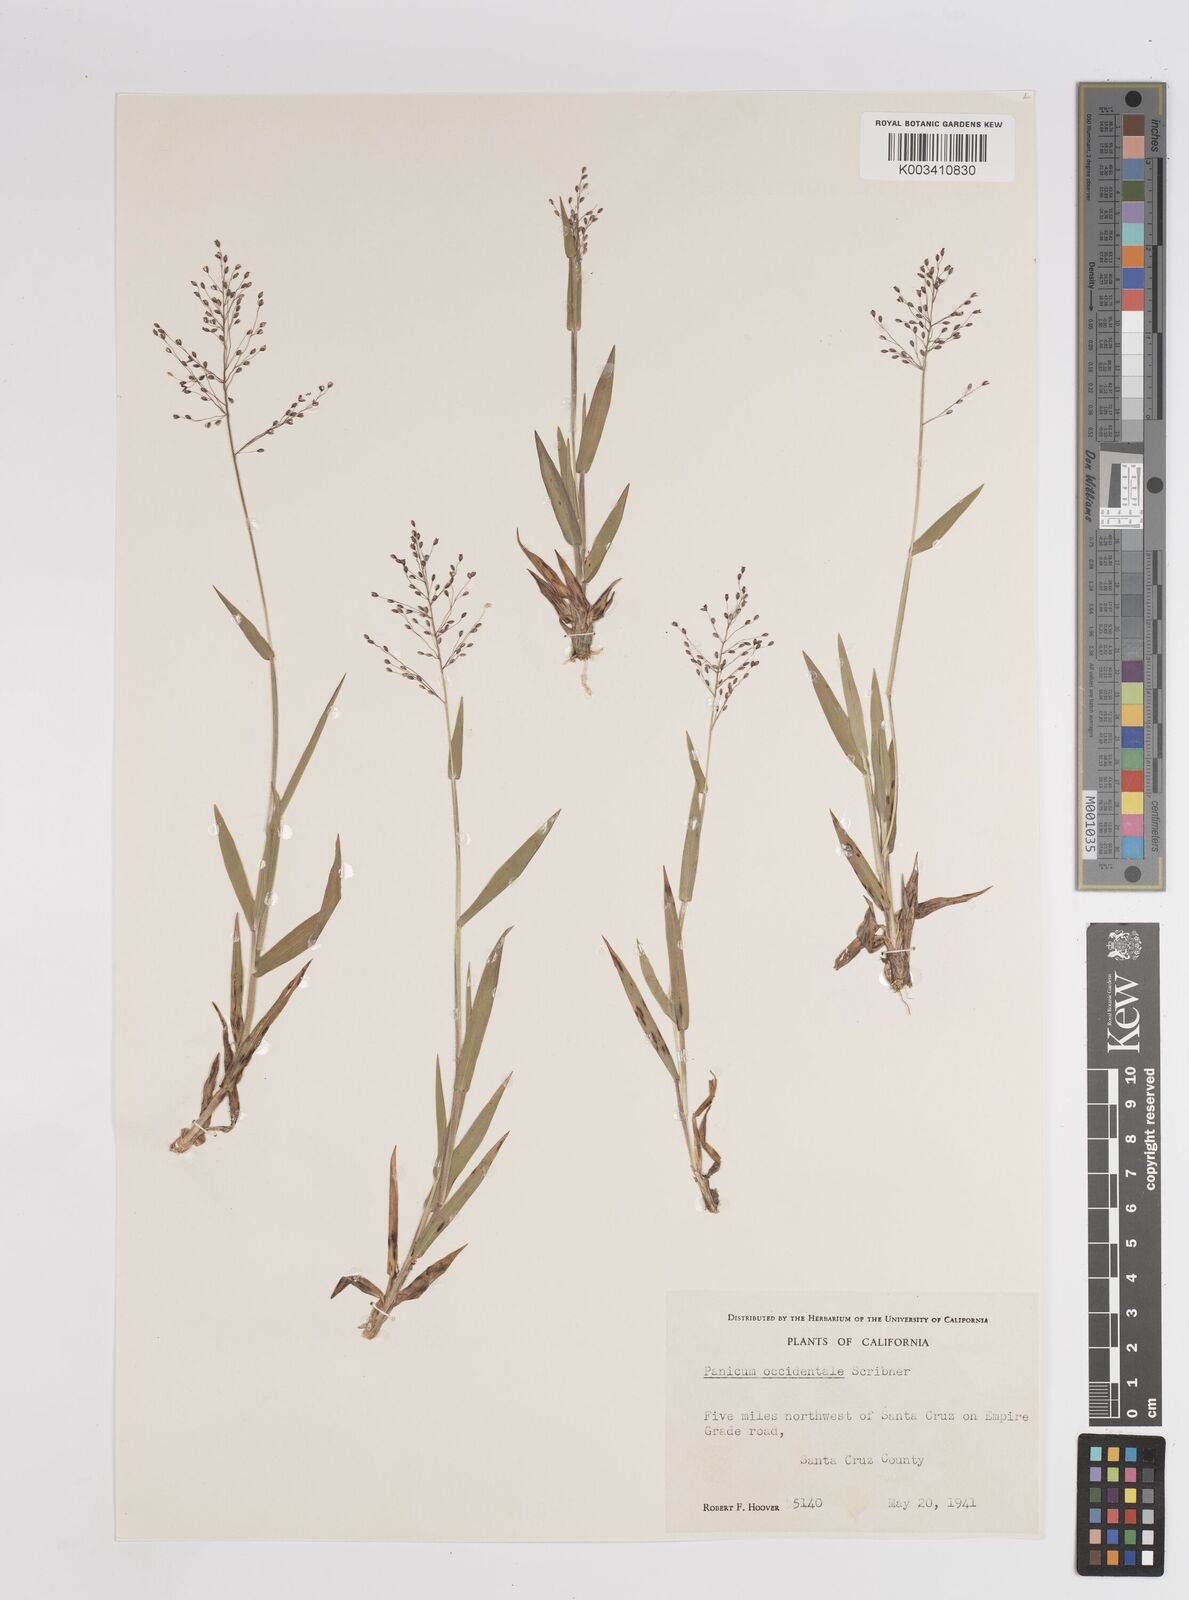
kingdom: Plantae
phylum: Tracheophyta
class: Liliopsida
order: Poales
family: Poaceae
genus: Dichanthelium
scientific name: Dichanthelium implicatum
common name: Slender-stemmed panicgrass
